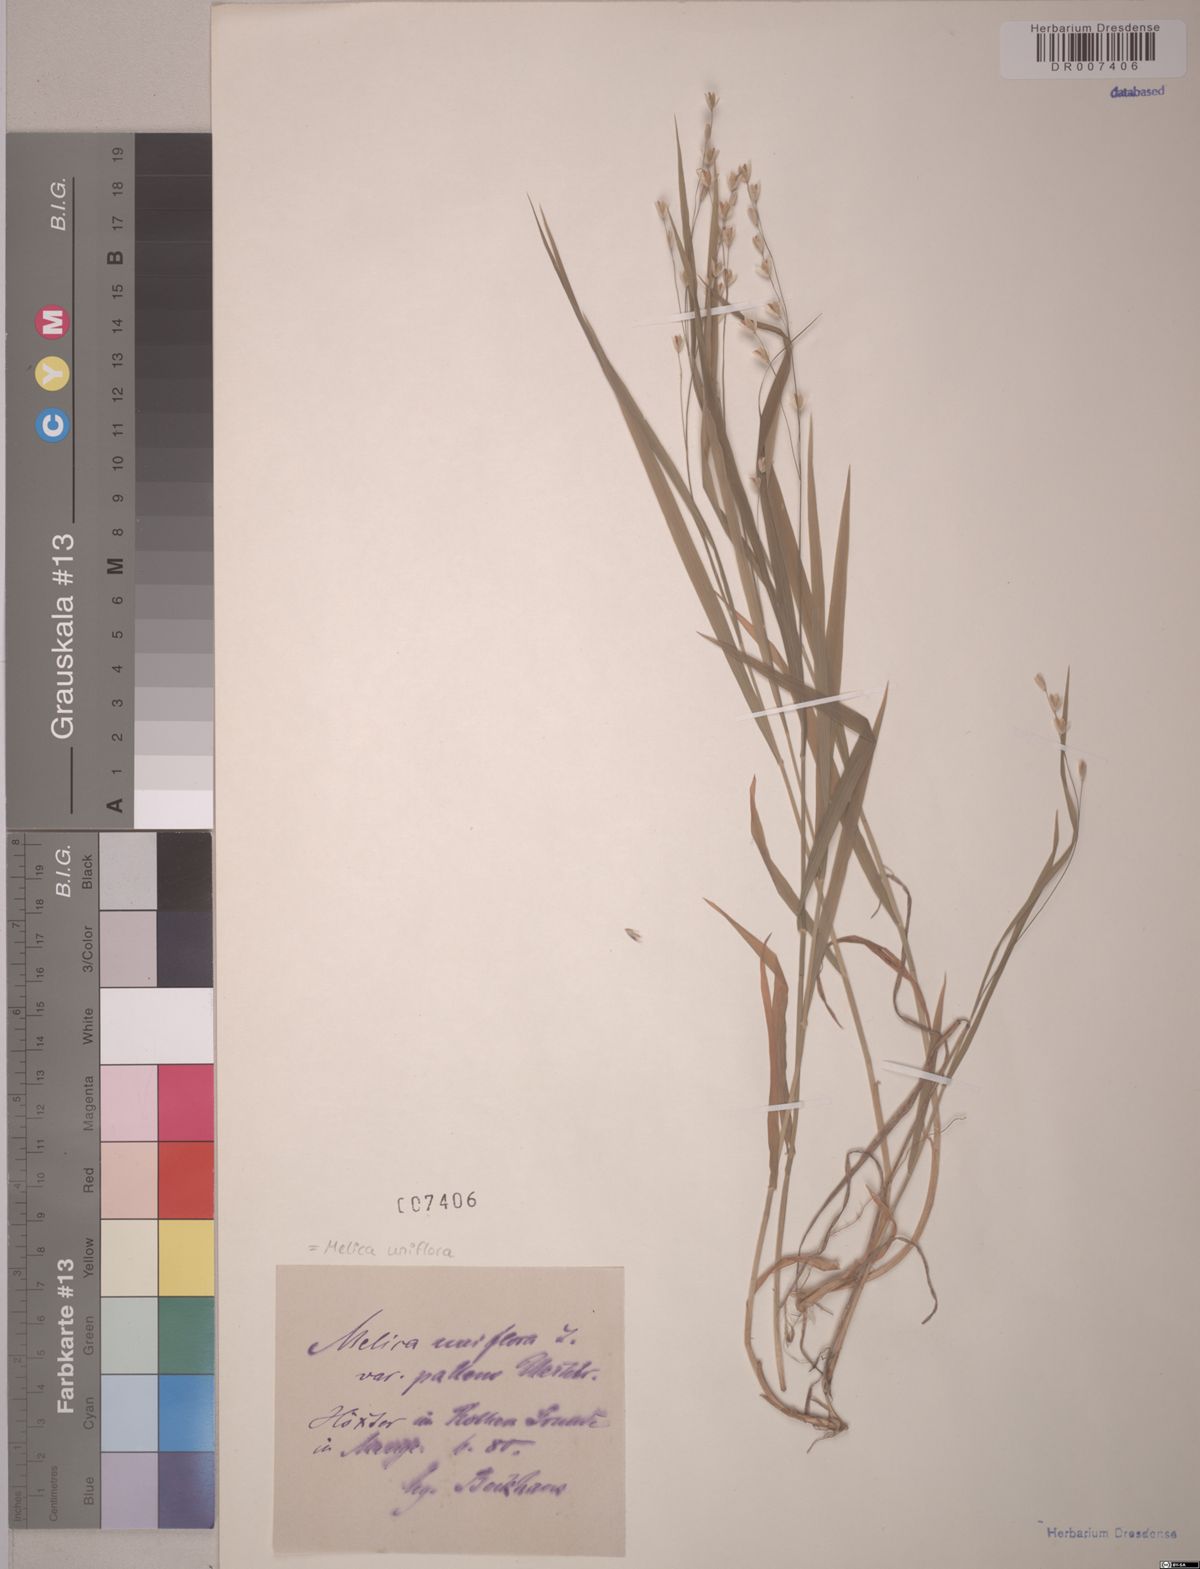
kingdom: Plantae
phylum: Tracheophyta
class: Liliopsida
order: Poales
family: Poaceae
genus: Melica
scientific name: Melica uniflora
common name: Wood melick
